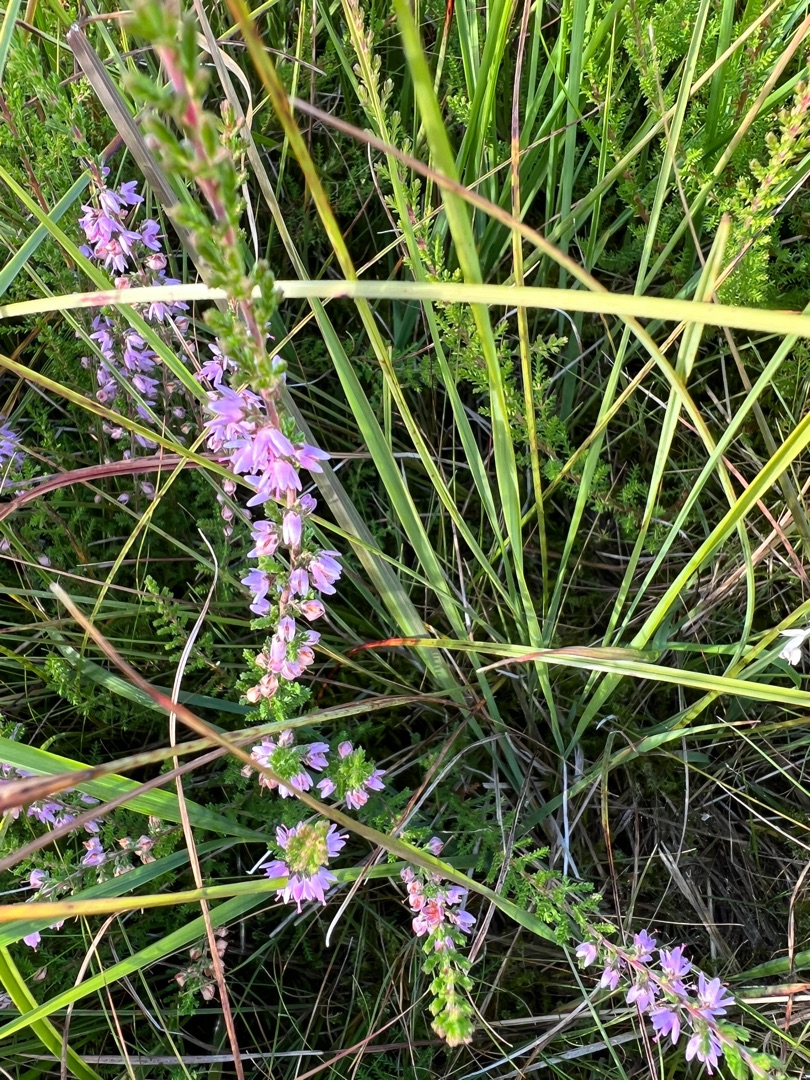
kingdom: Plantae
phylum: Tracheophyta
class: Magnoliopsida
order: Ericales
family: Ericaceae
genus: Calluna
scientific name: Calluna vulgaris
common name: Hedelyng
